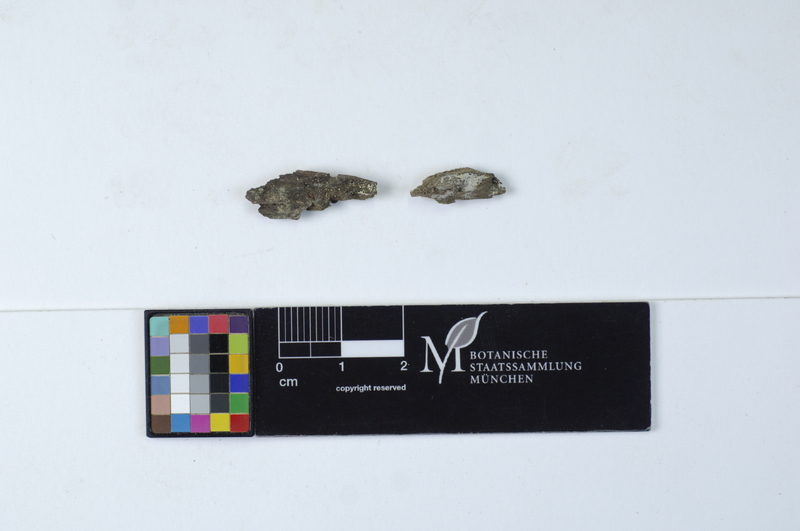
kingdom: Fungi
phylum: Basidiomycota
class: Agaricomycetes
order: Trechisporales
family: Hydnodontaceae
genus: Subulicystidium
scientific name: Subulicystidium longisporum
